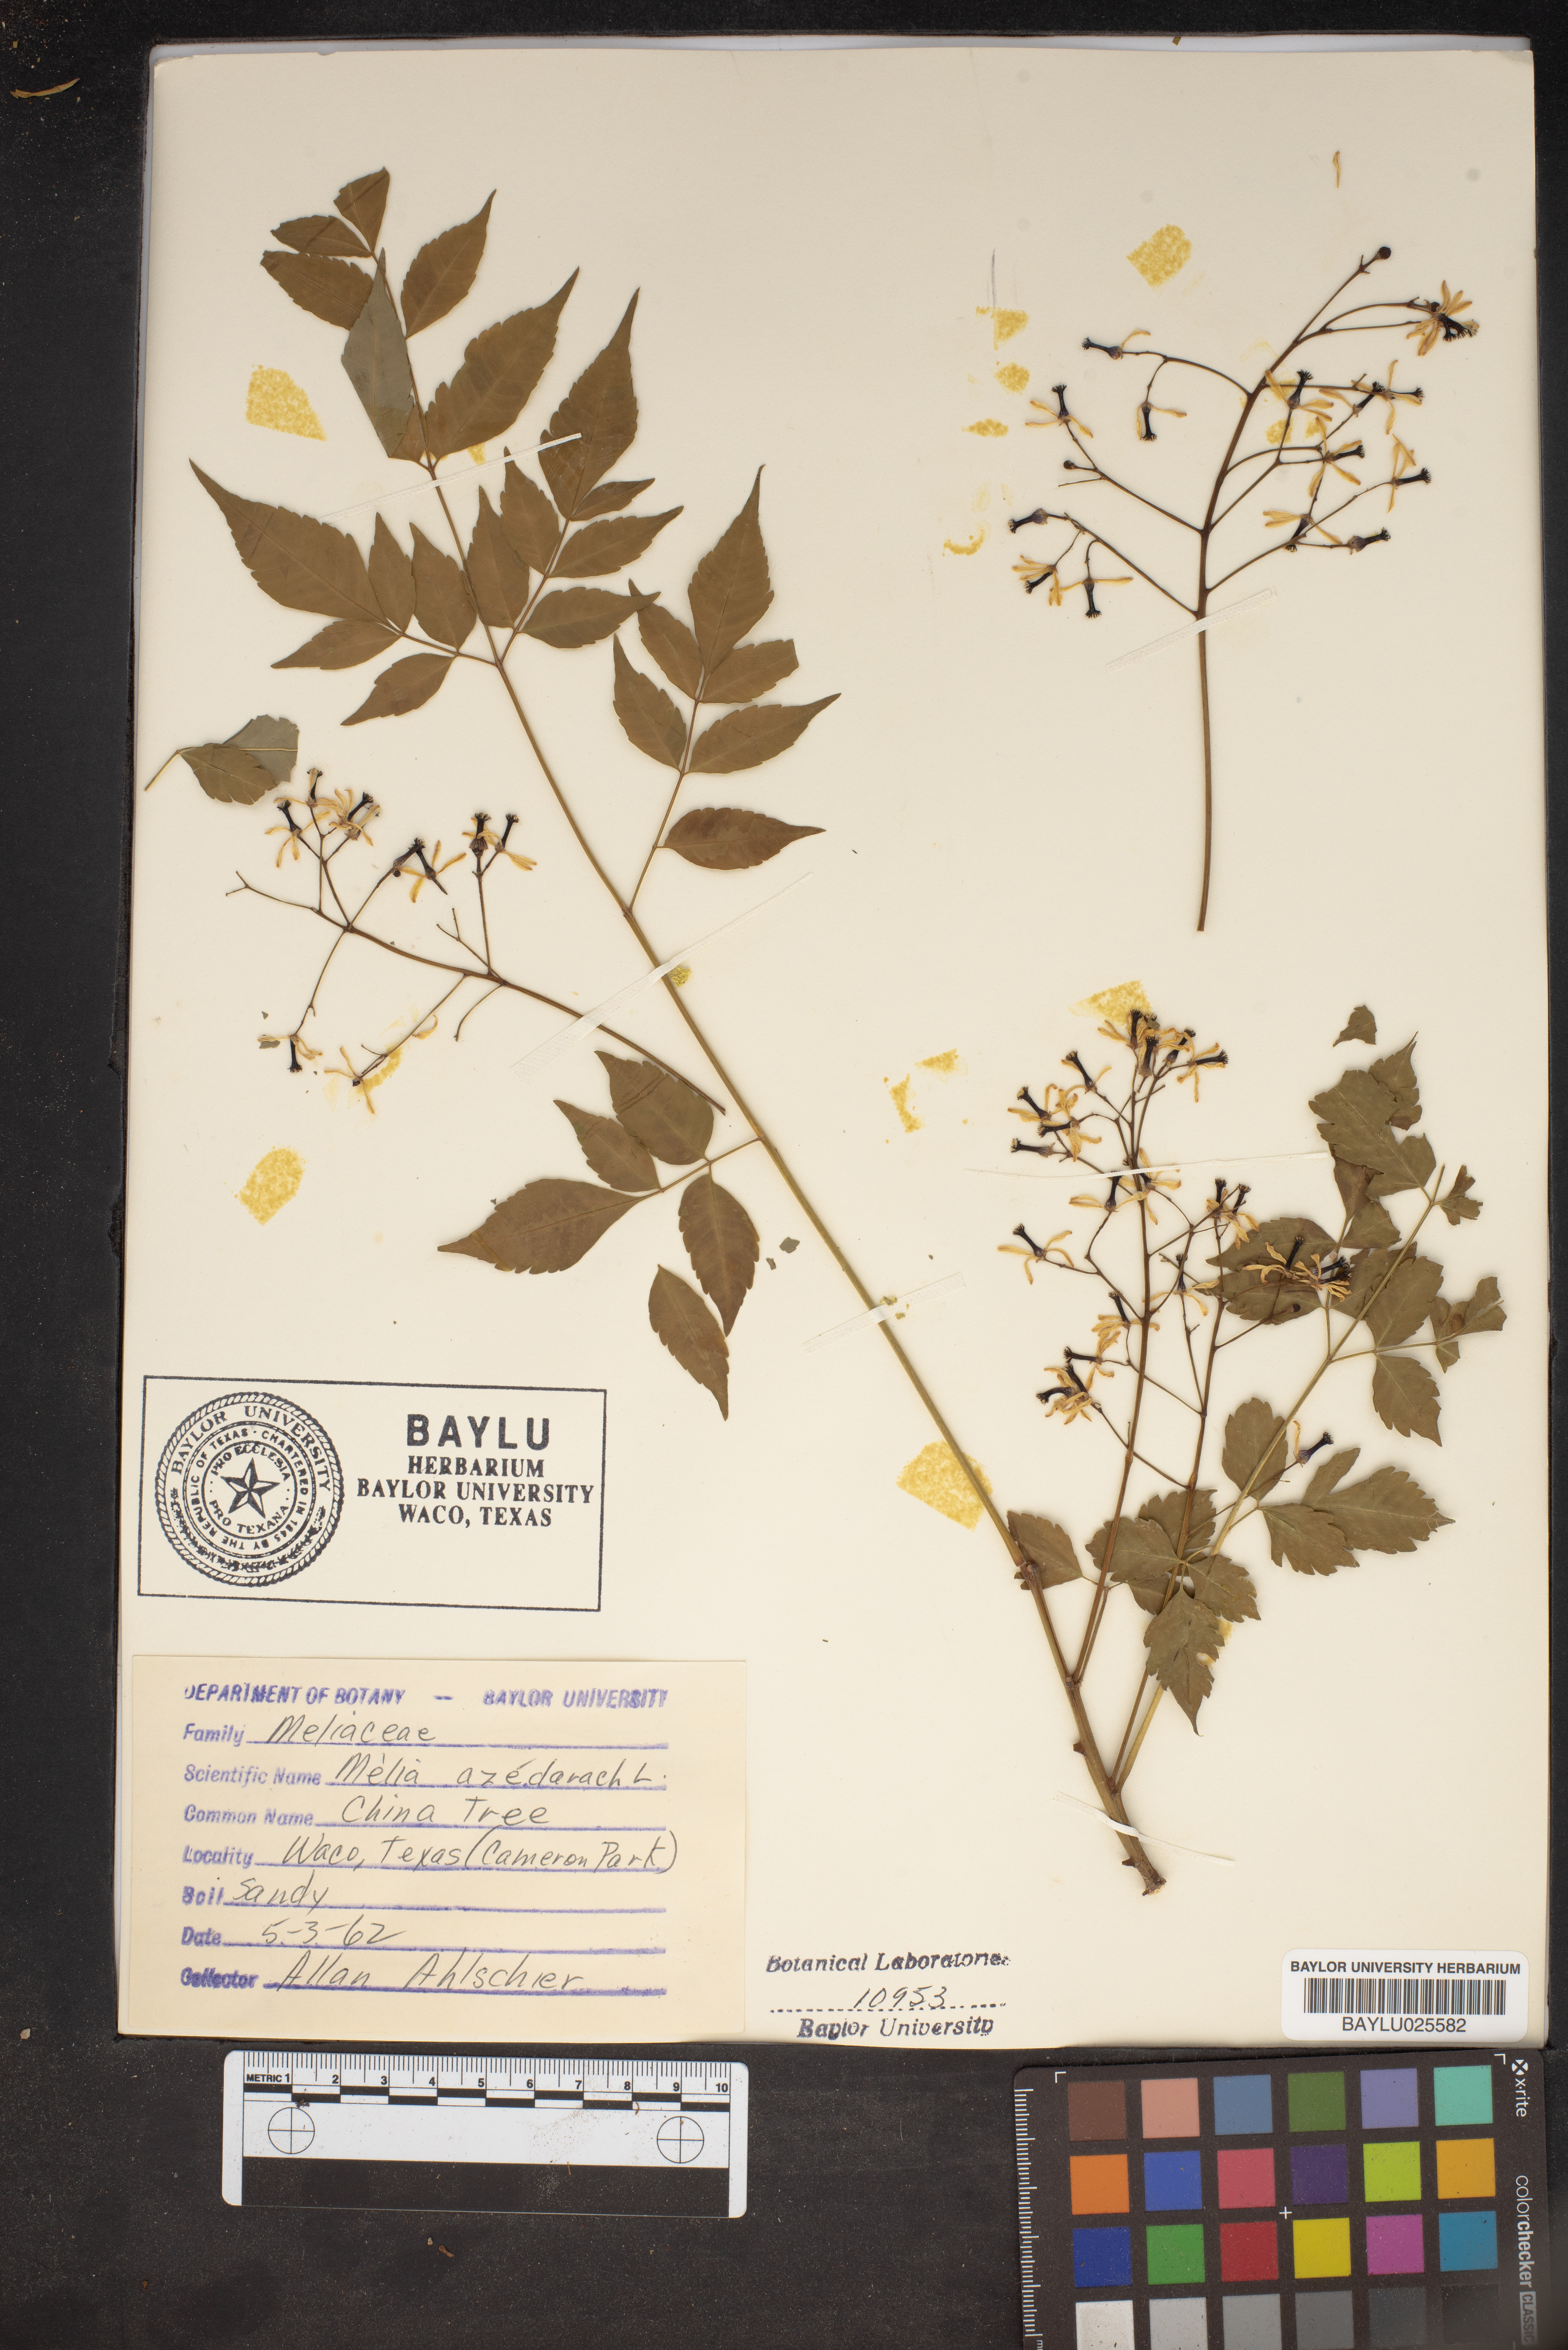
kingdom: Plantae
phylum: Tracheophyta
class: Magnoliopsida
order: Sapindales
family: Meliaceae
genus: Melia
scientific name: Melia azedarach
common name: Chinaberrytree
